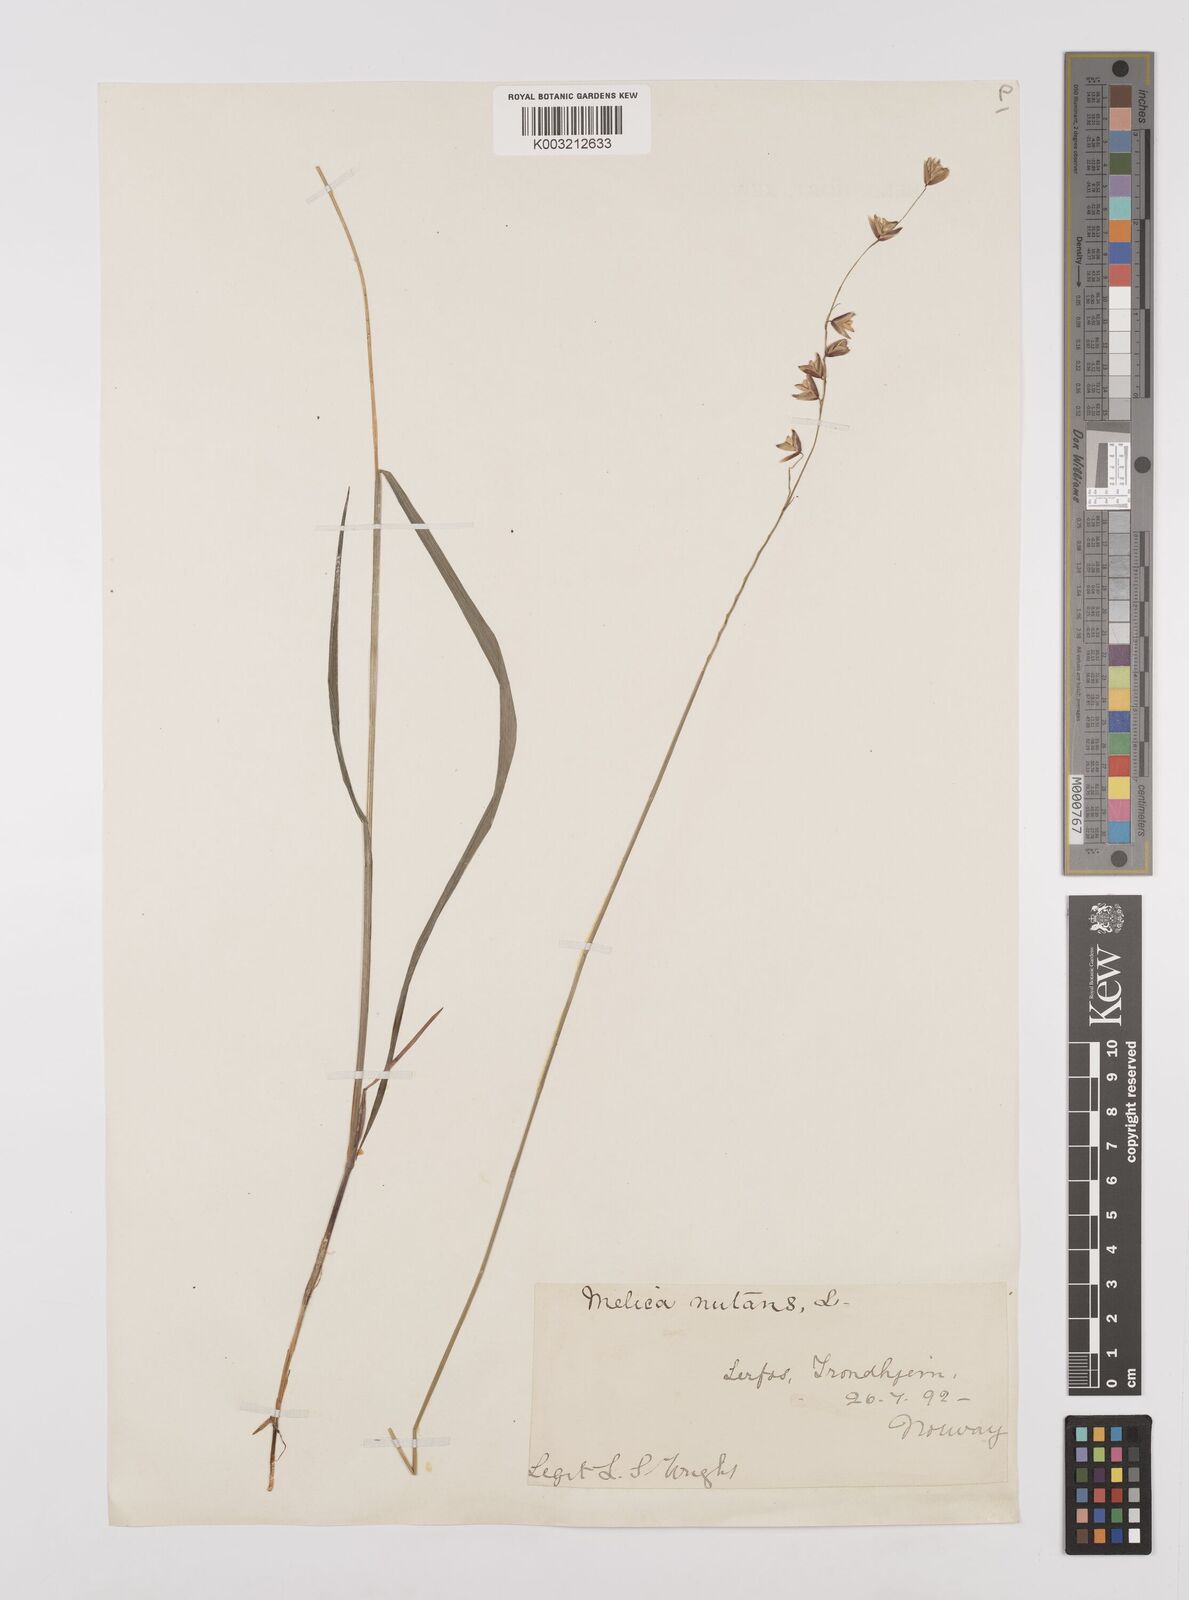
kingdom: Plantae
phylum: Tracheophyta
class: Liliopsida
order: Poales
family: Poaceae
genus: Melica
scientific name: Melica
